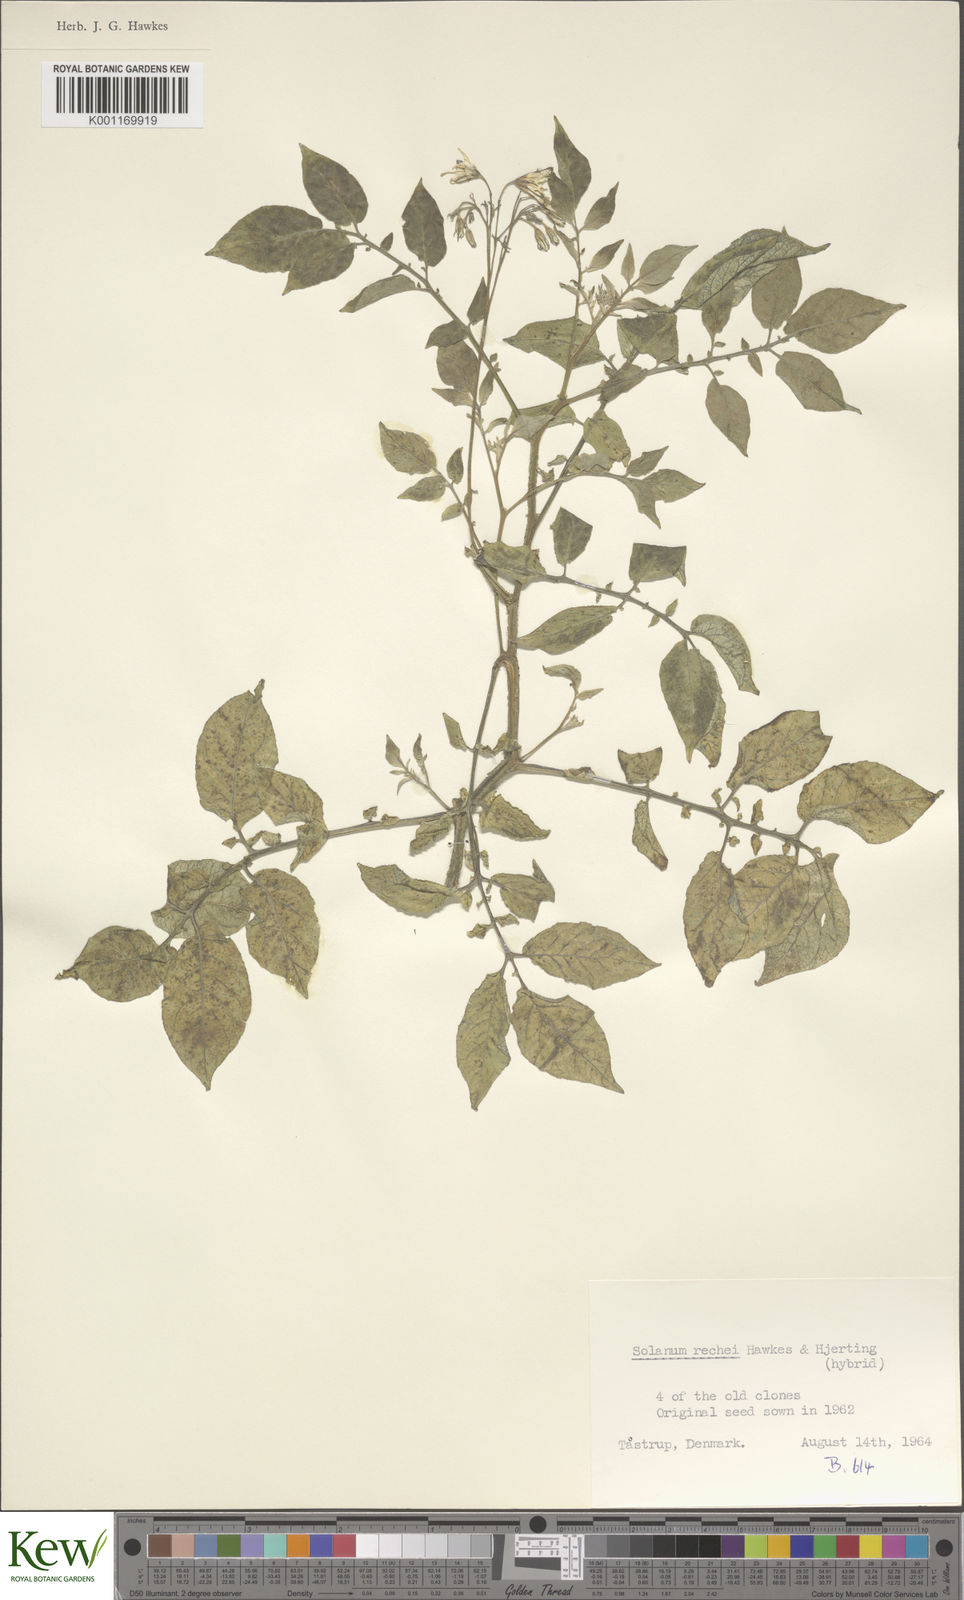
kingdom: Plantae
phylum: Tracheophyta
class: Magnoliopsida
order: Solanales
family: Solanaceae
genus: Solanum
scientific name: Solanum rechei
